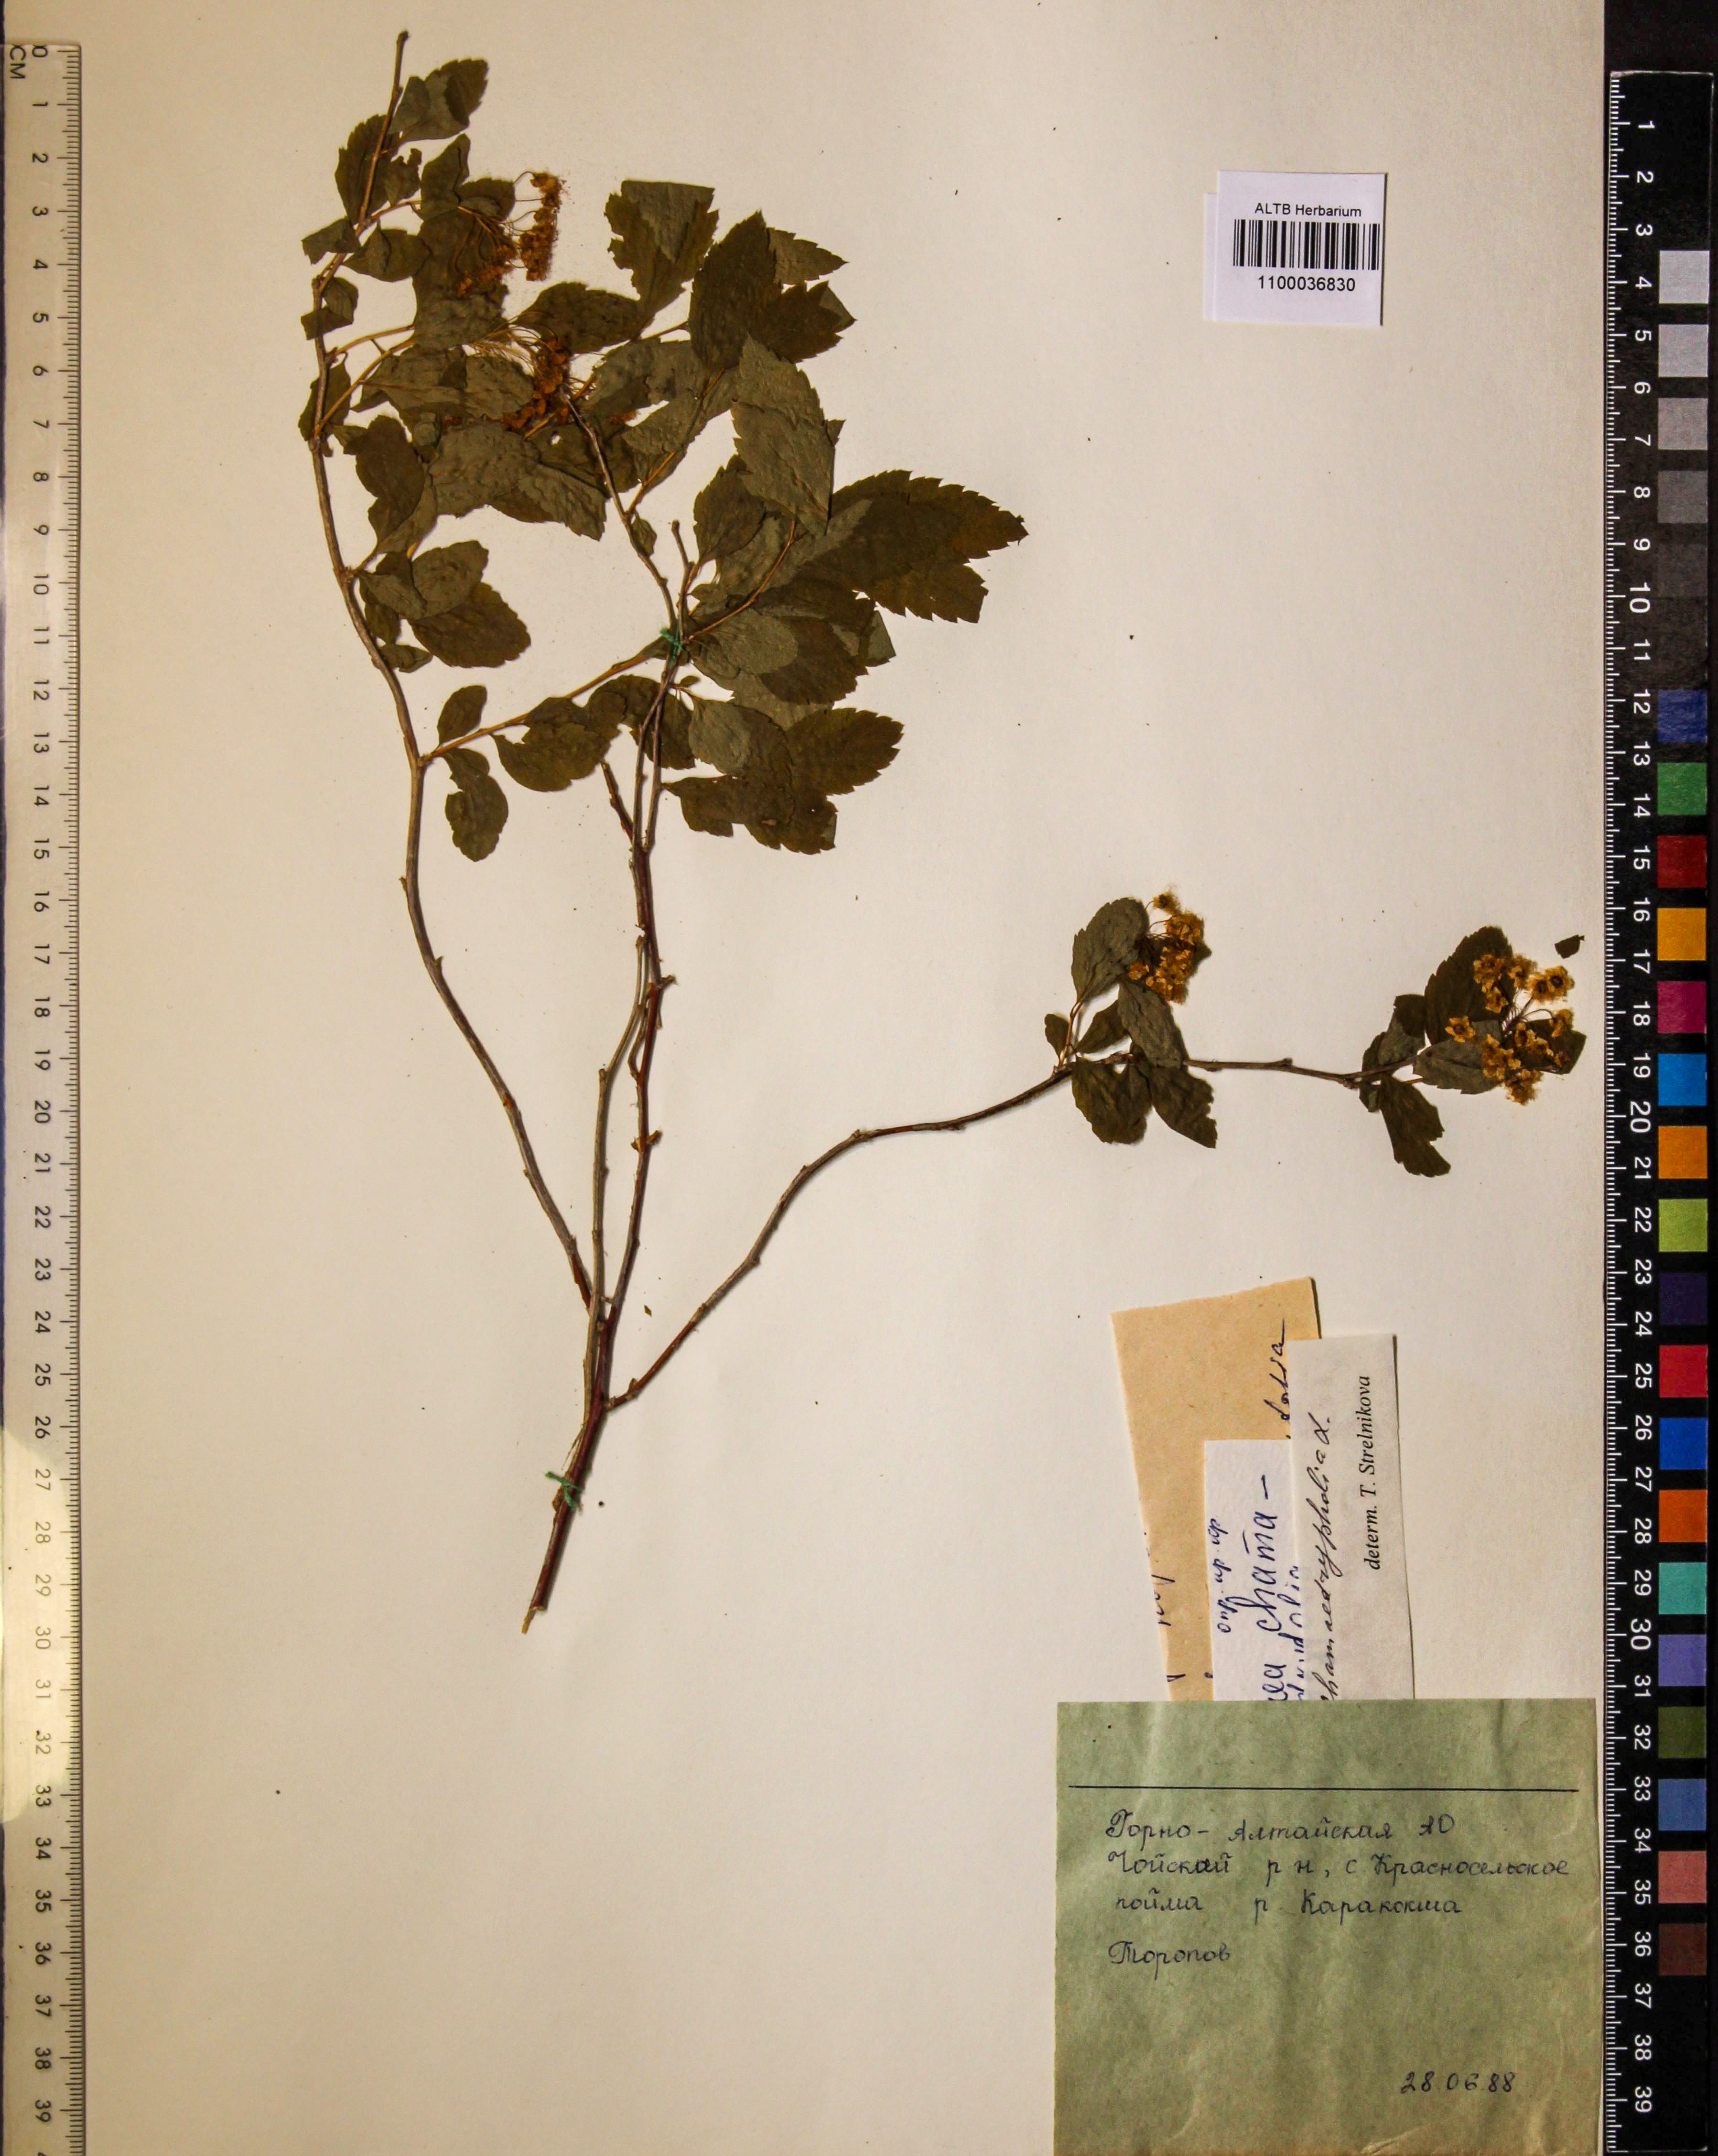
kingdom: Plantae
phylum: Tracheophyta
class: Magnoliopsida
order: Rosales
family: Rosaceae
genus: Spiraea
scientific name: Spiraea chamaedryfolia
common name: Elm-leaved spiraea
